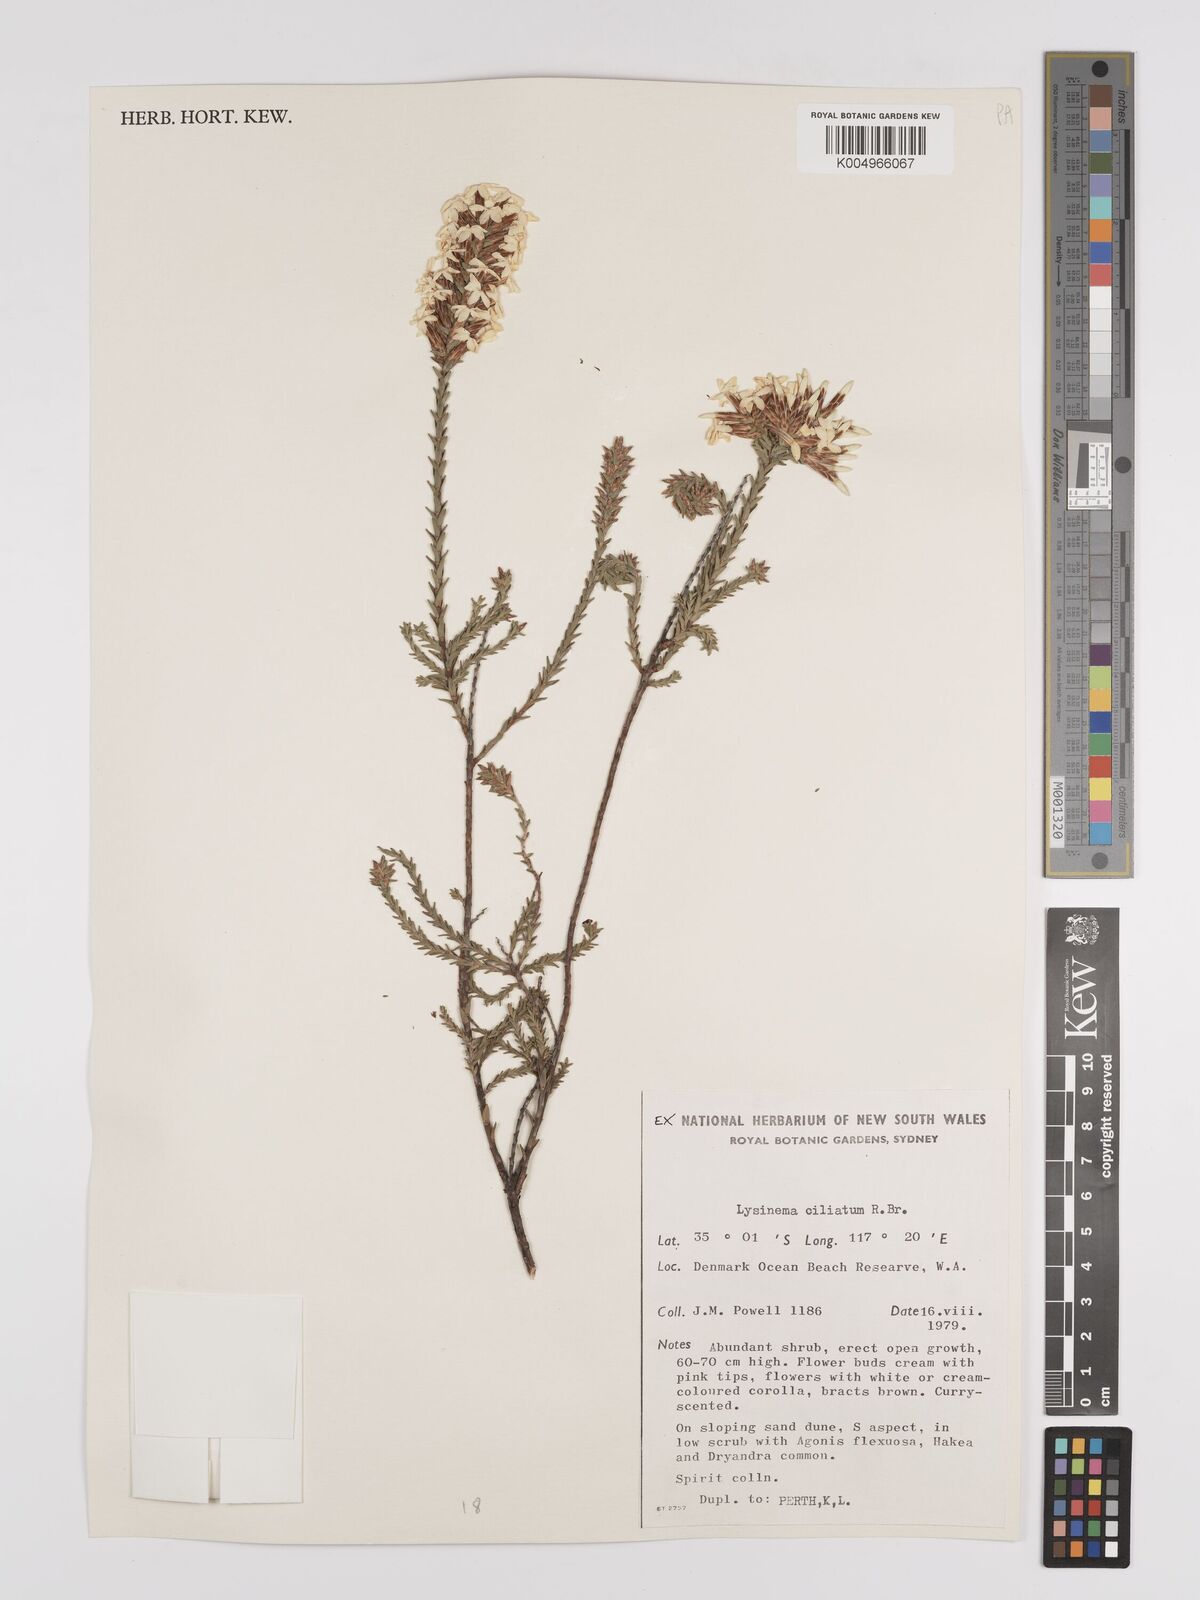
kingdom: Plantae
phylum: Tracheophyta
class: Magnoliopsida
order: Ericales
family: Ericaceae
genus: Lysinema
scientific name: Lysinema ciliatum
